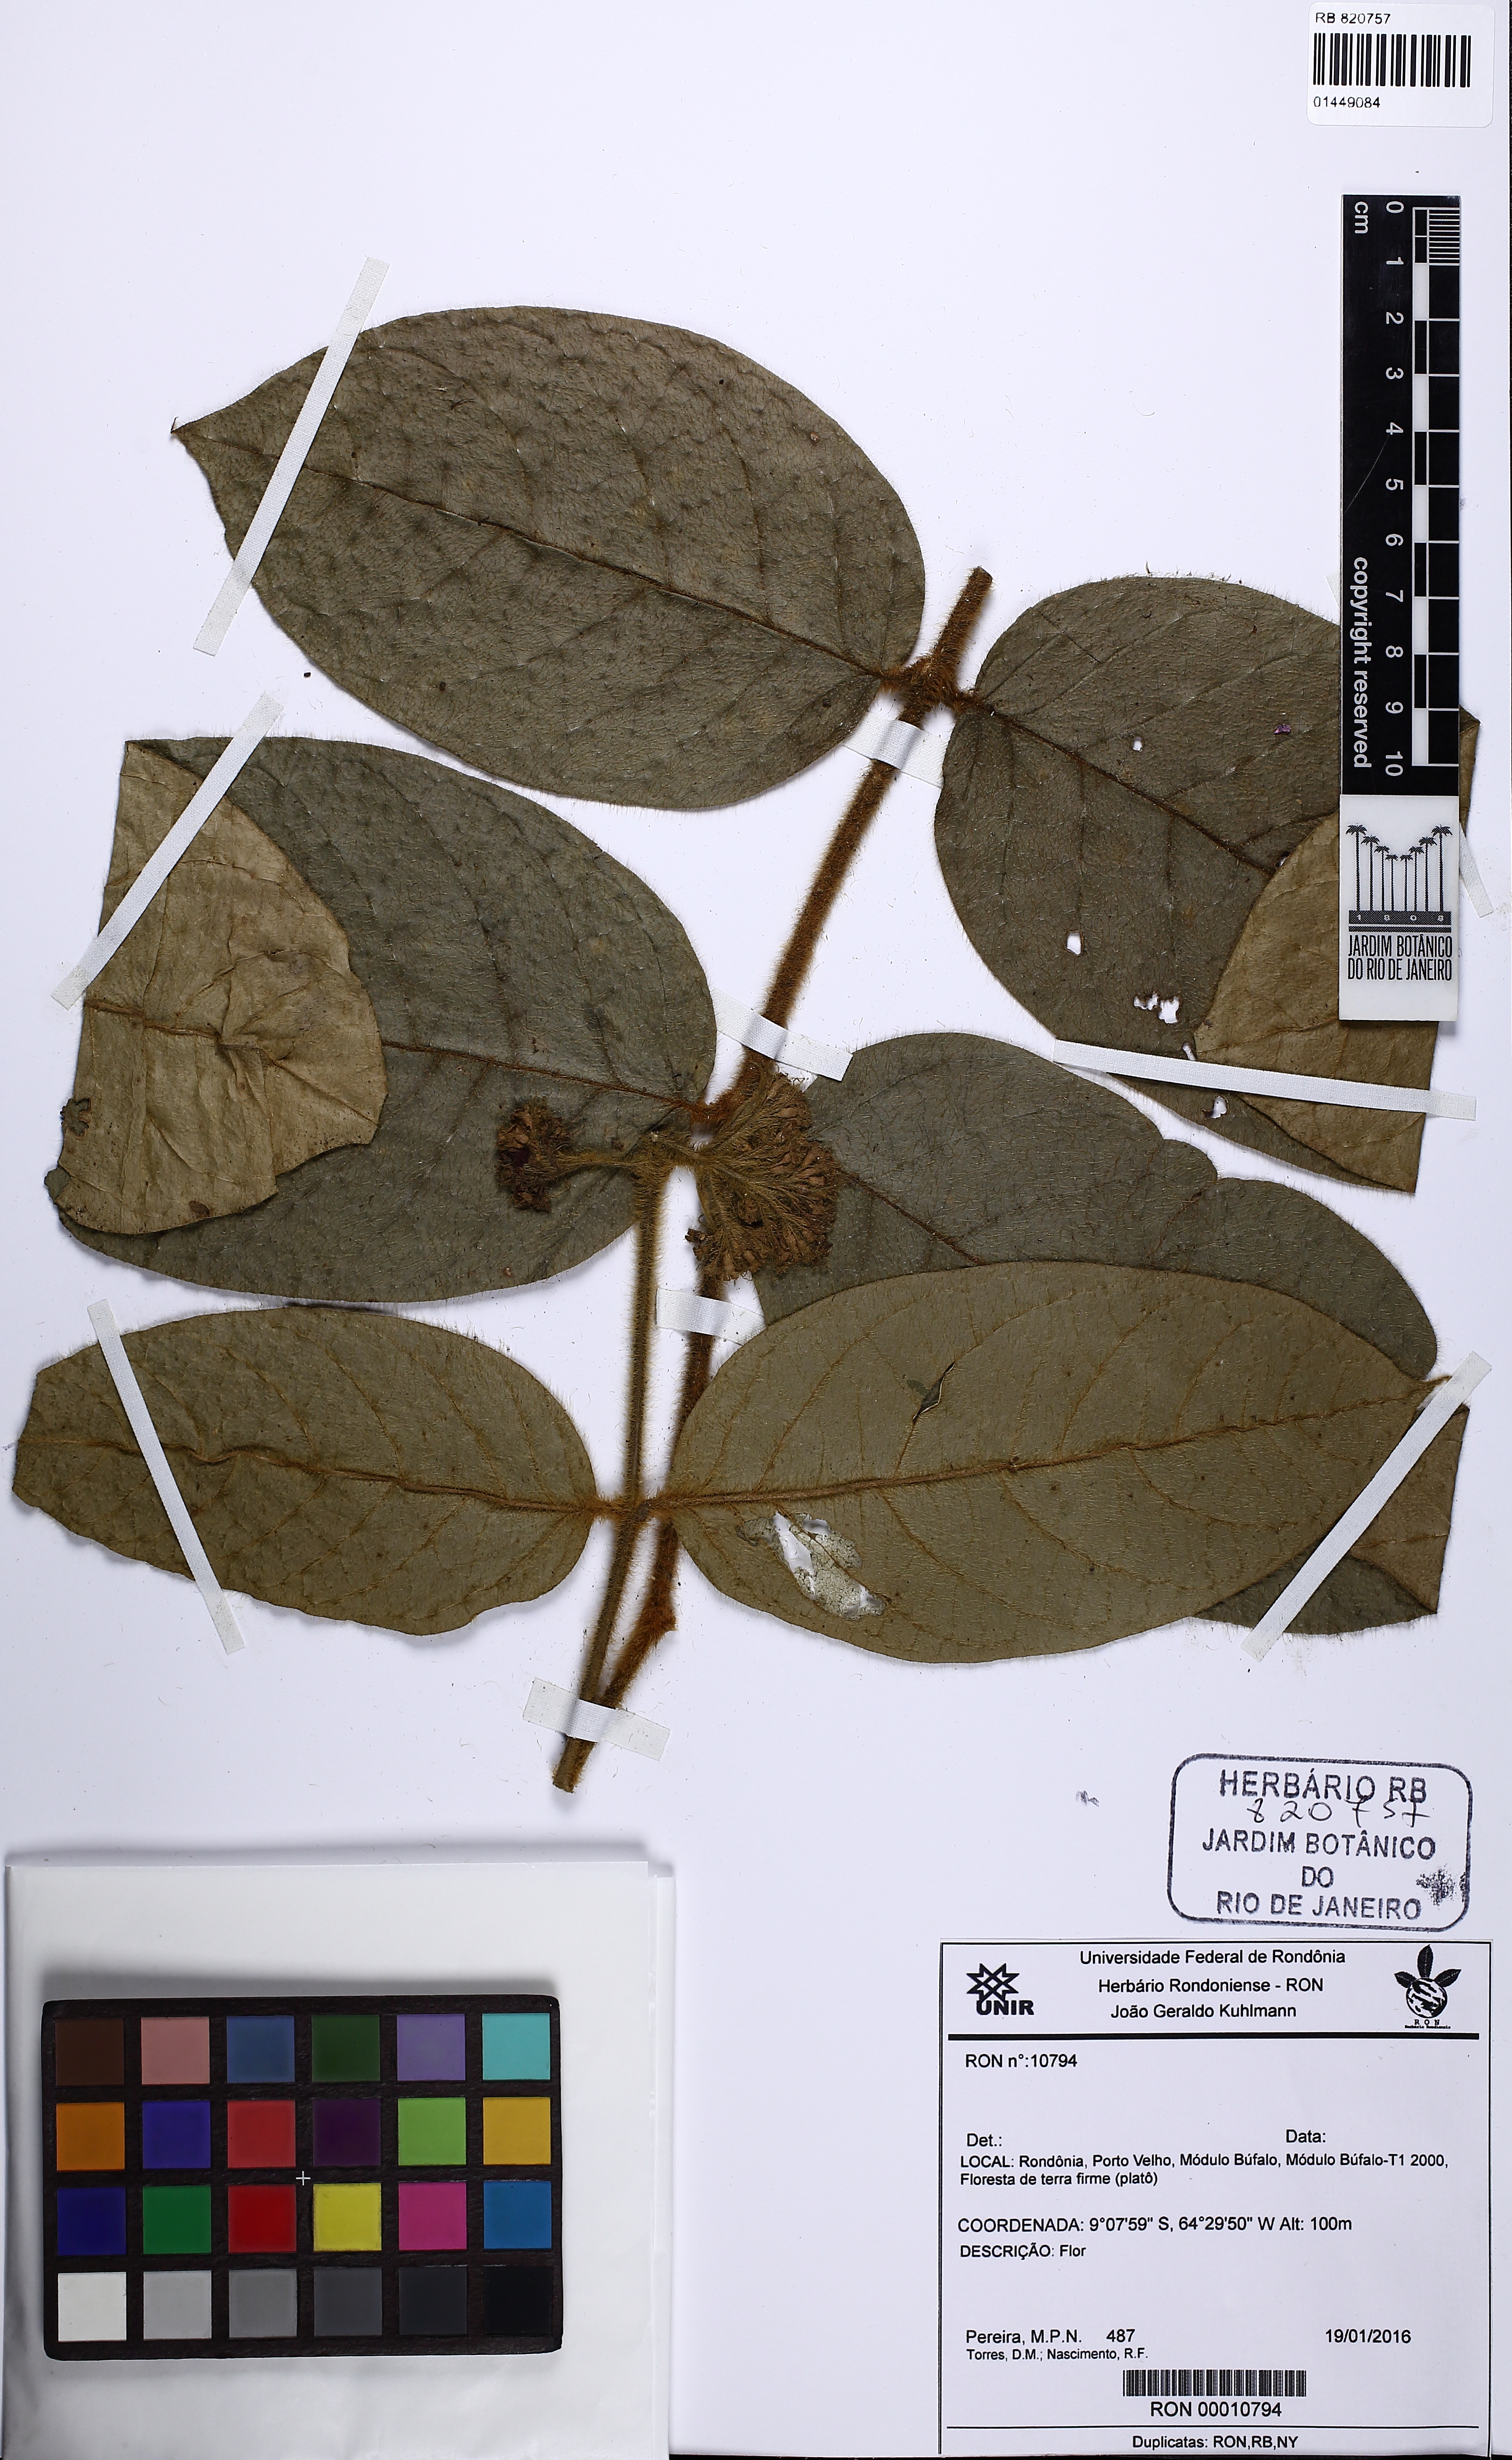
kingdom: Plantae
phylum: Tracheophyta
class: Magnoliopsida
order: Asterales
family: Asteraceae
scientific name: Asteraceae
